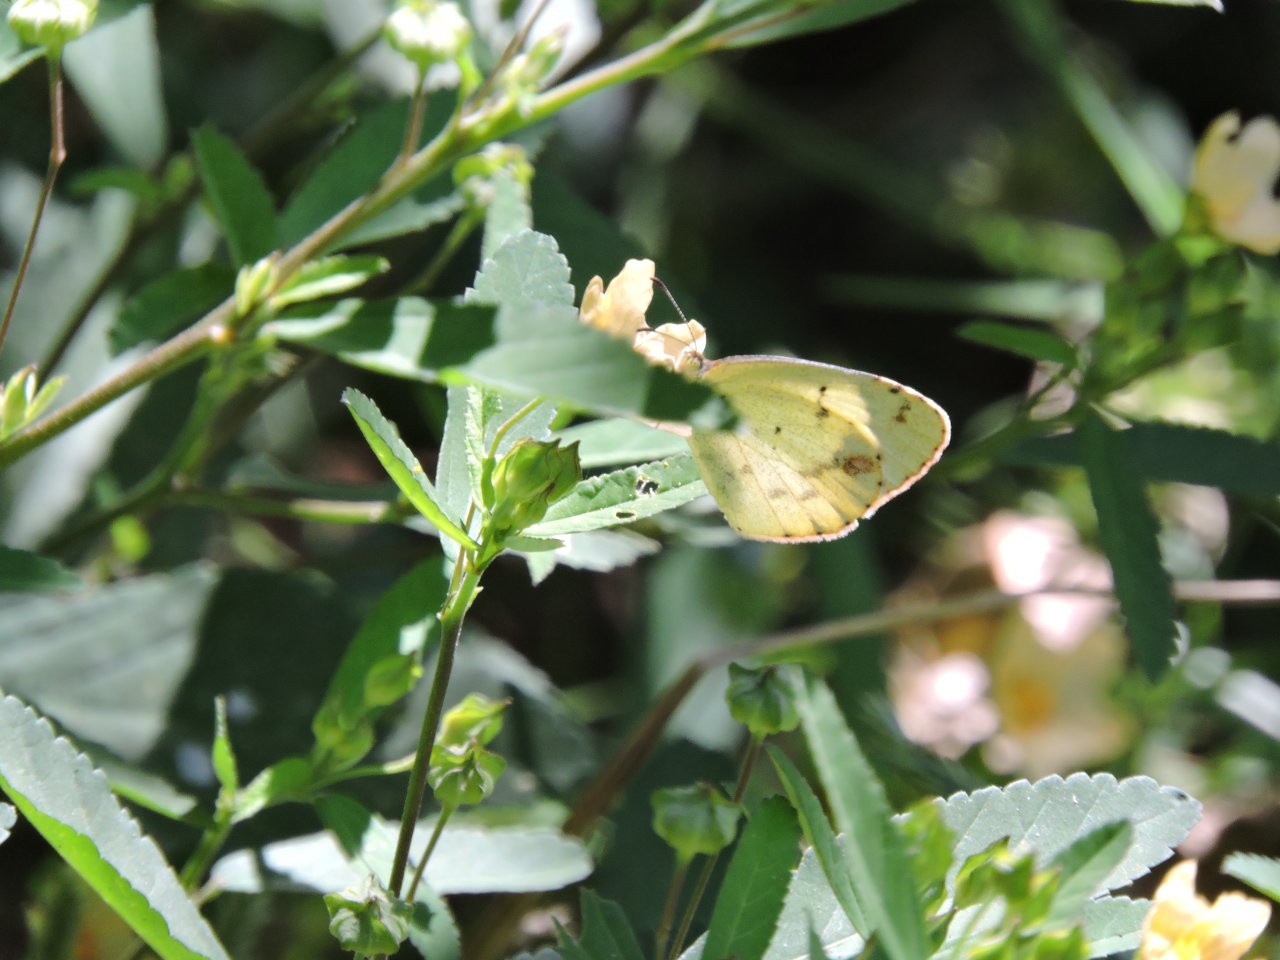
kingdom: Animalia
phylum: Arthropoda
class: Insecta
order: Lepidoptera
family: Pieridae
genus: Pyrisitia
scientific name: Pyrisitia lisa
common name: Little Yellow
